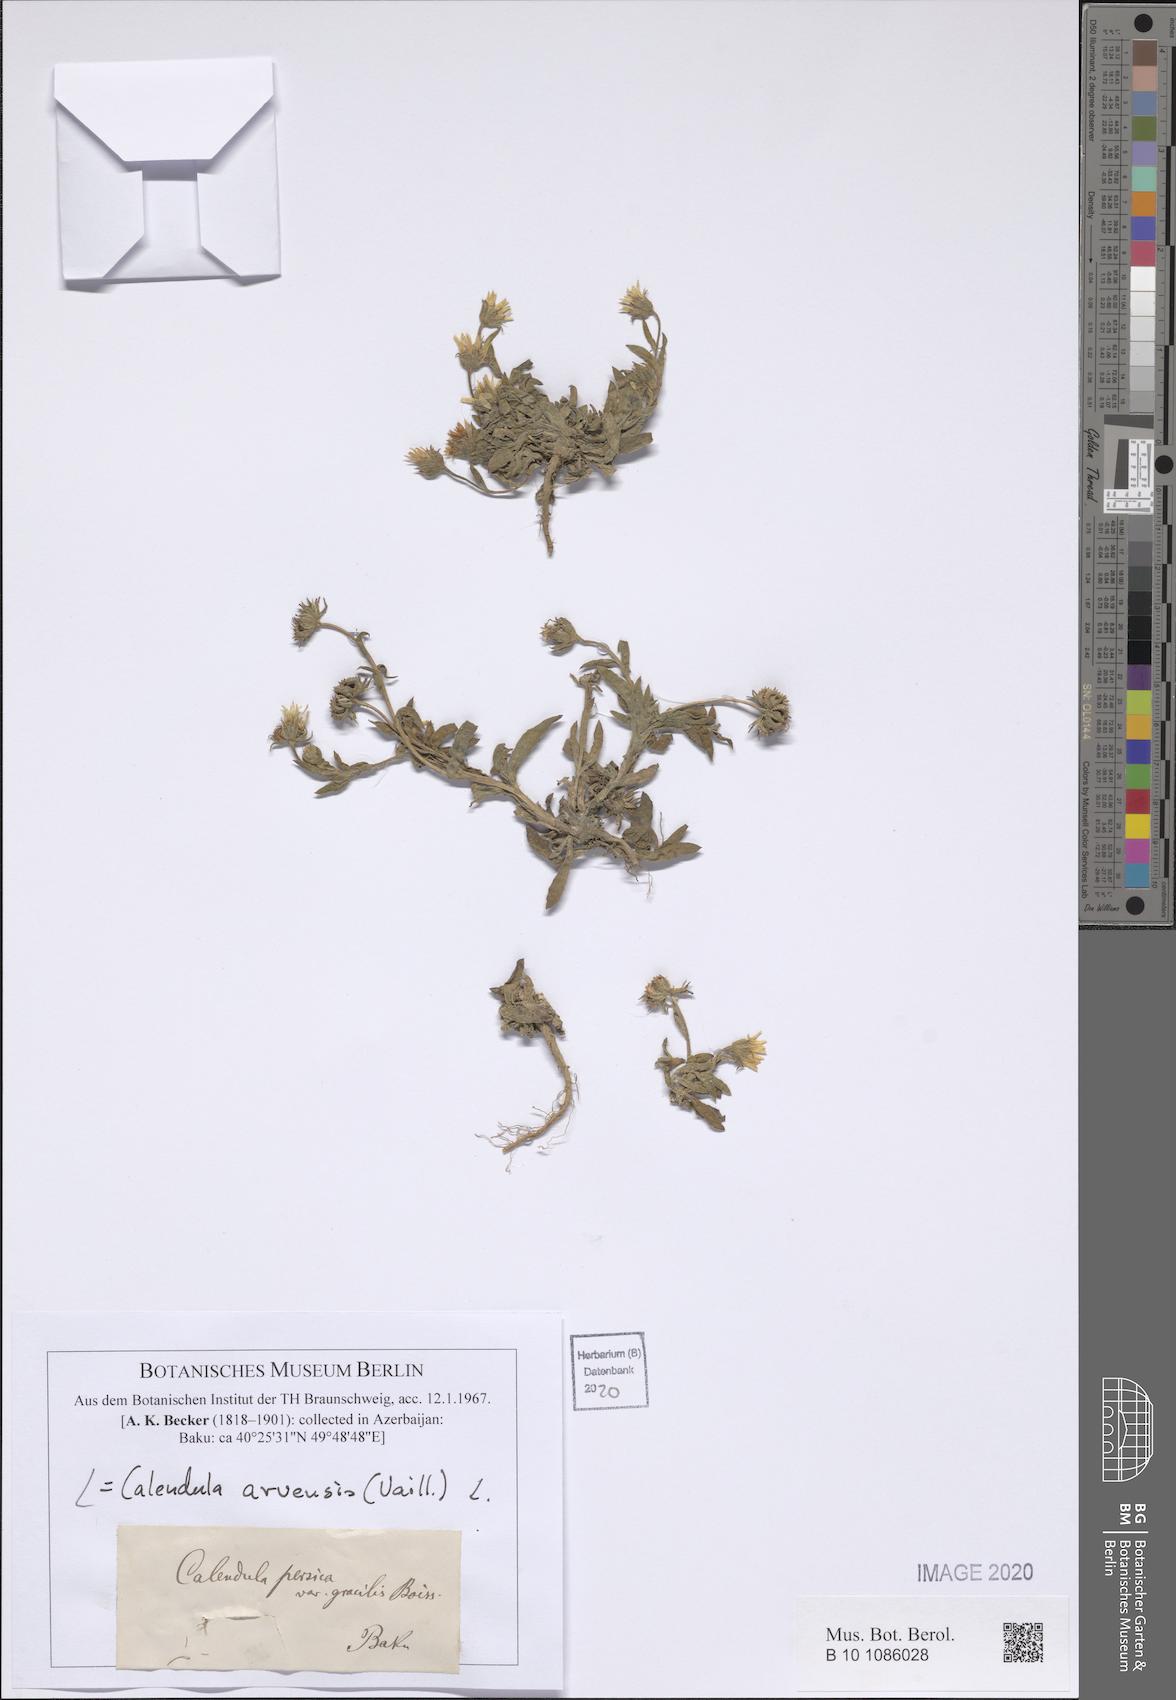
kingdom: Plantae
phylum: Tracheophyta
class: Magnoliopsida
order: Asterales
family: Asteraceae
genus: Calendula
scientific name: Calendula arvensis
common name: Field marigold
